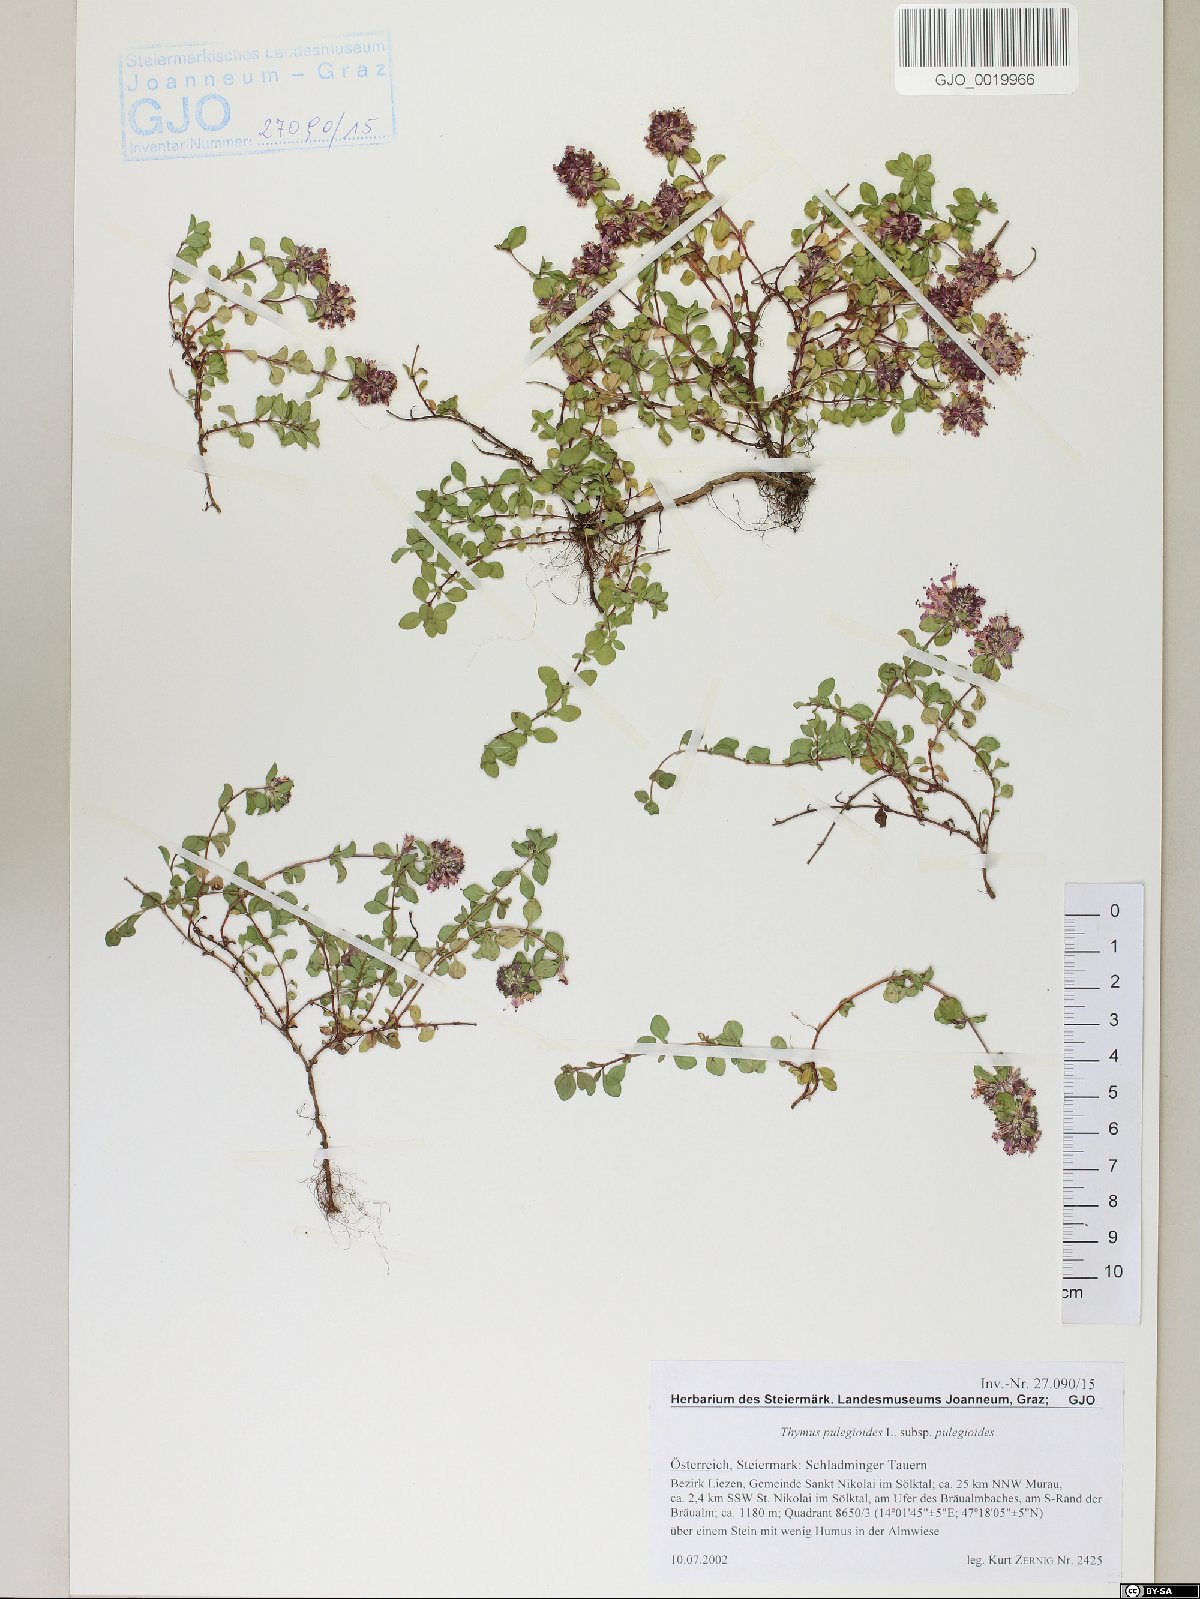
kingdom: Plantae
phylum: Tracheophyta
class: Magnoliopsida
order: Lamiales
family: Lamiaceae
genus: Thymus
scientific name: Thymus pulegioides
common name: Large thyme
